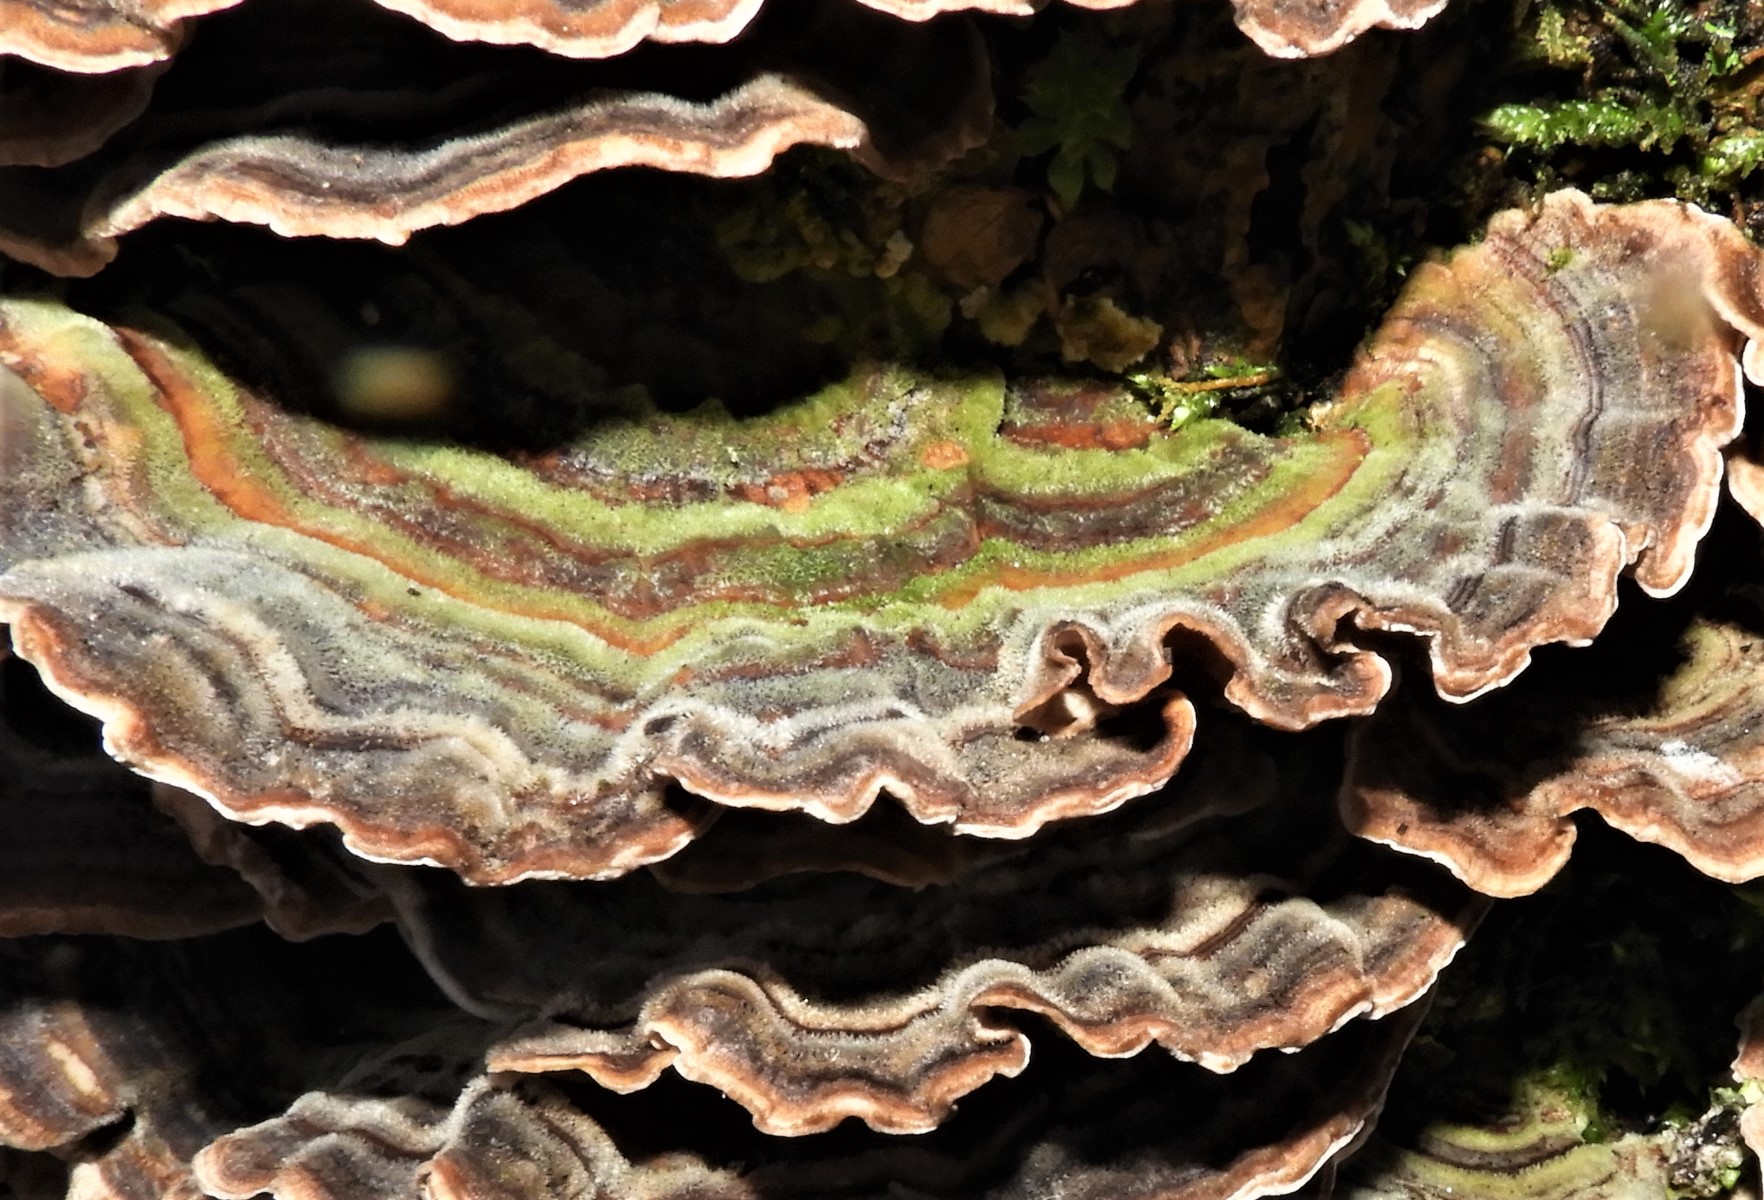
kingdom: Fungi
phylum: Basidiomycota
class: Agaricomycetes
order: Polyporales
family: Polyporaceae
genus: Trametes
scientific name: Trametes versicolor
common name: broget læderporesvamp
